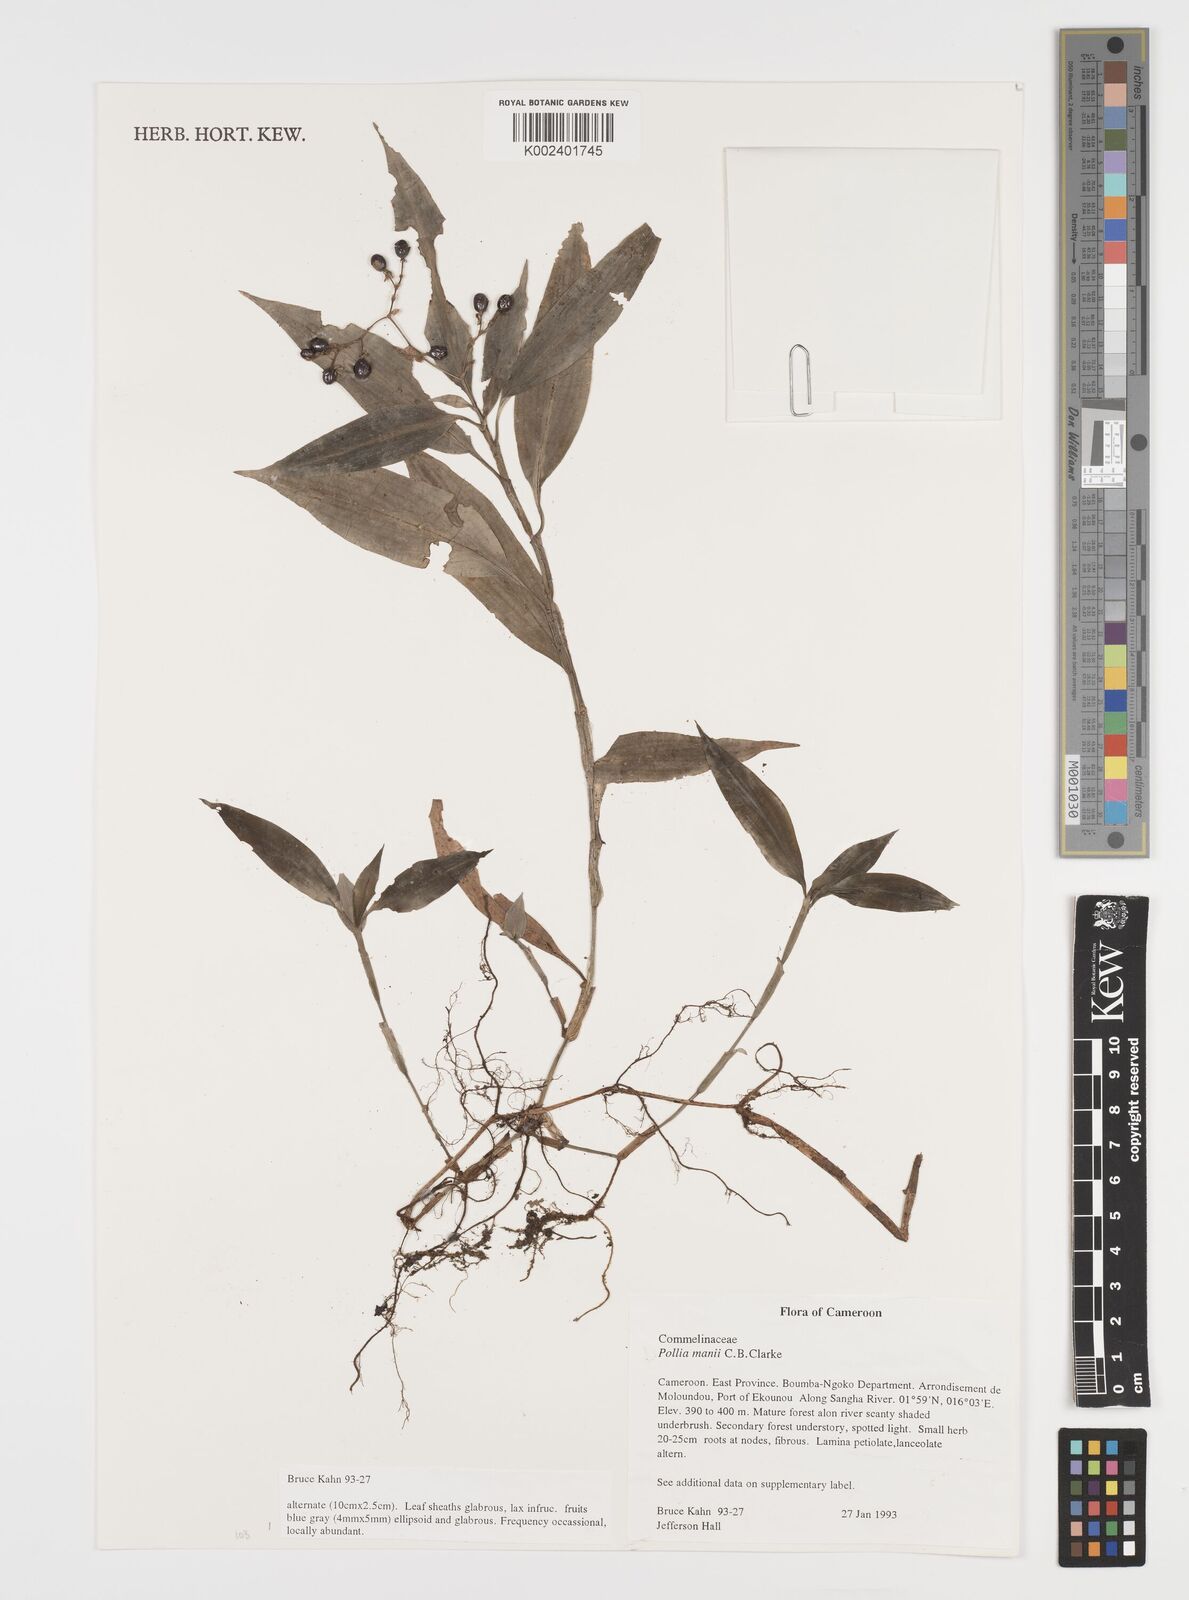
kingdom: Plantae
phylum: Tracheophyta
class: Liliopsida
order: Commelinales
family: Commelinaceae
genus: Pollia
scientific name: Pollia mannii
